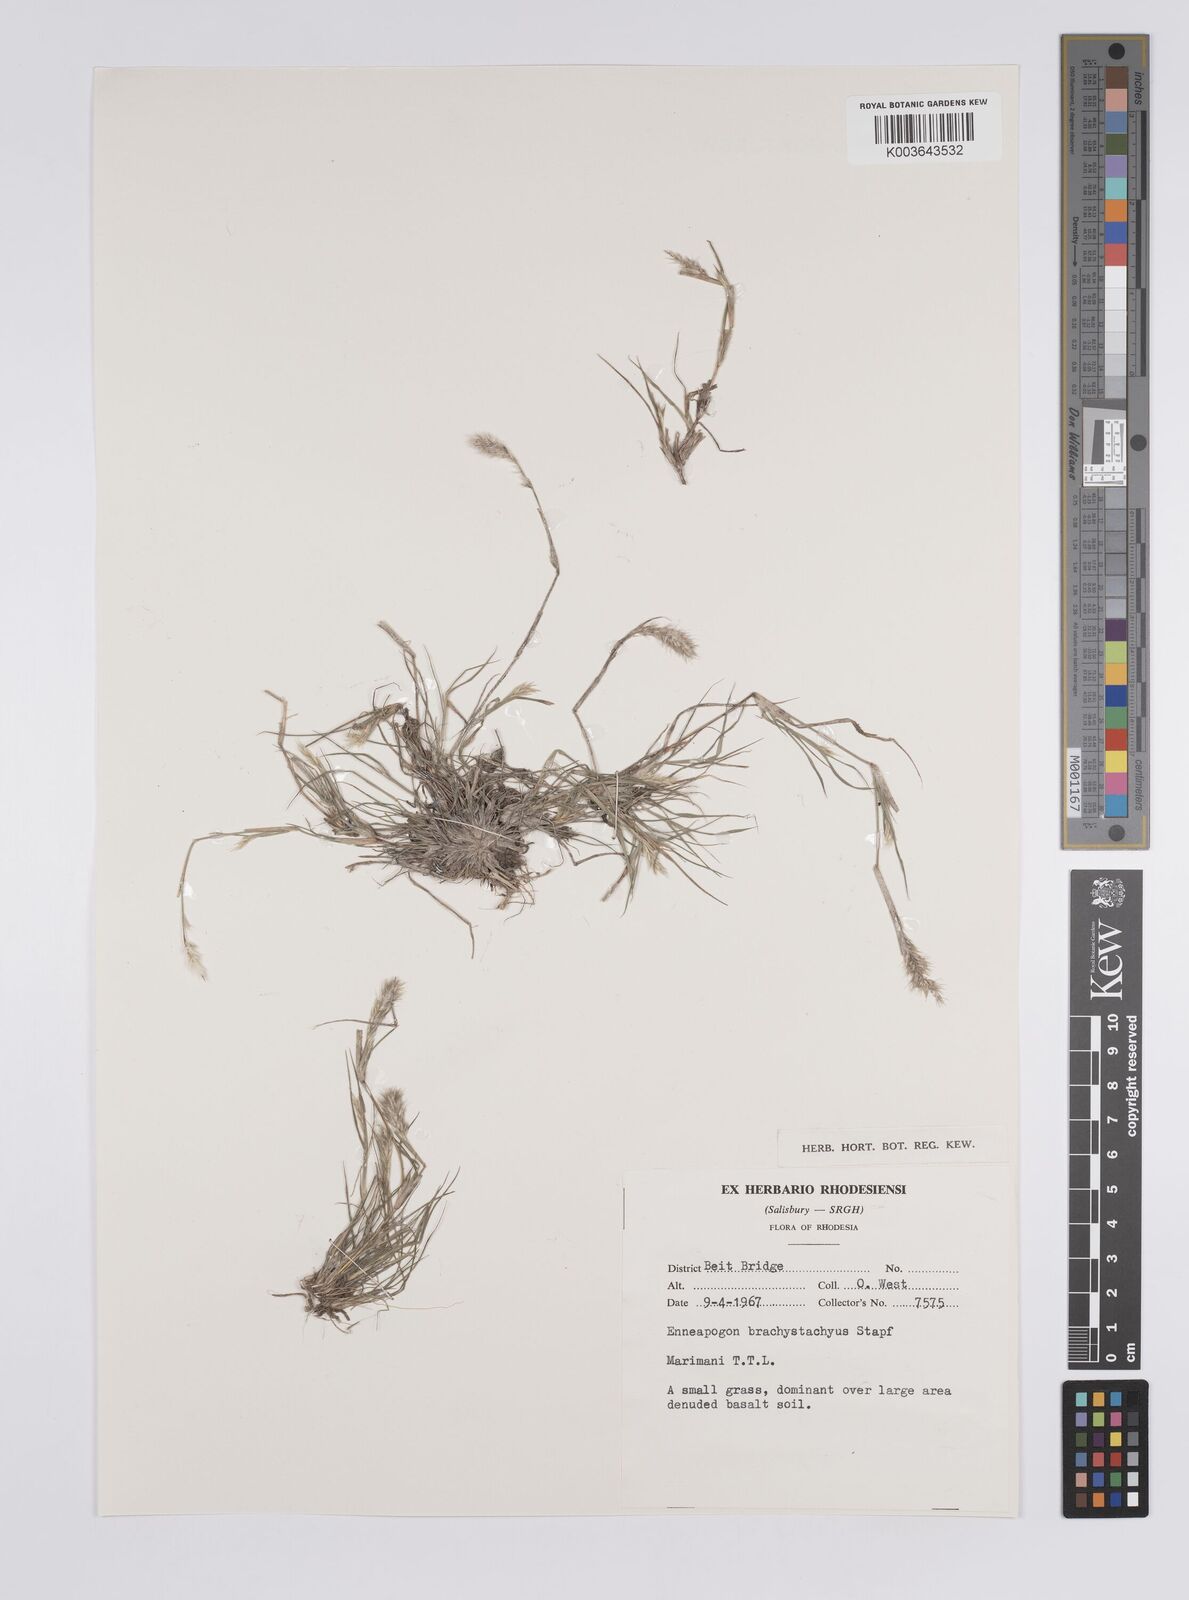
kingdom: Plantae
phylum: Tracheophyta
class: Liliopsida
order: Poales
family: Poaceae
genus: Enneapogon
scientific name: Enneapogon desvauxii
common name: Feather pappus grass
